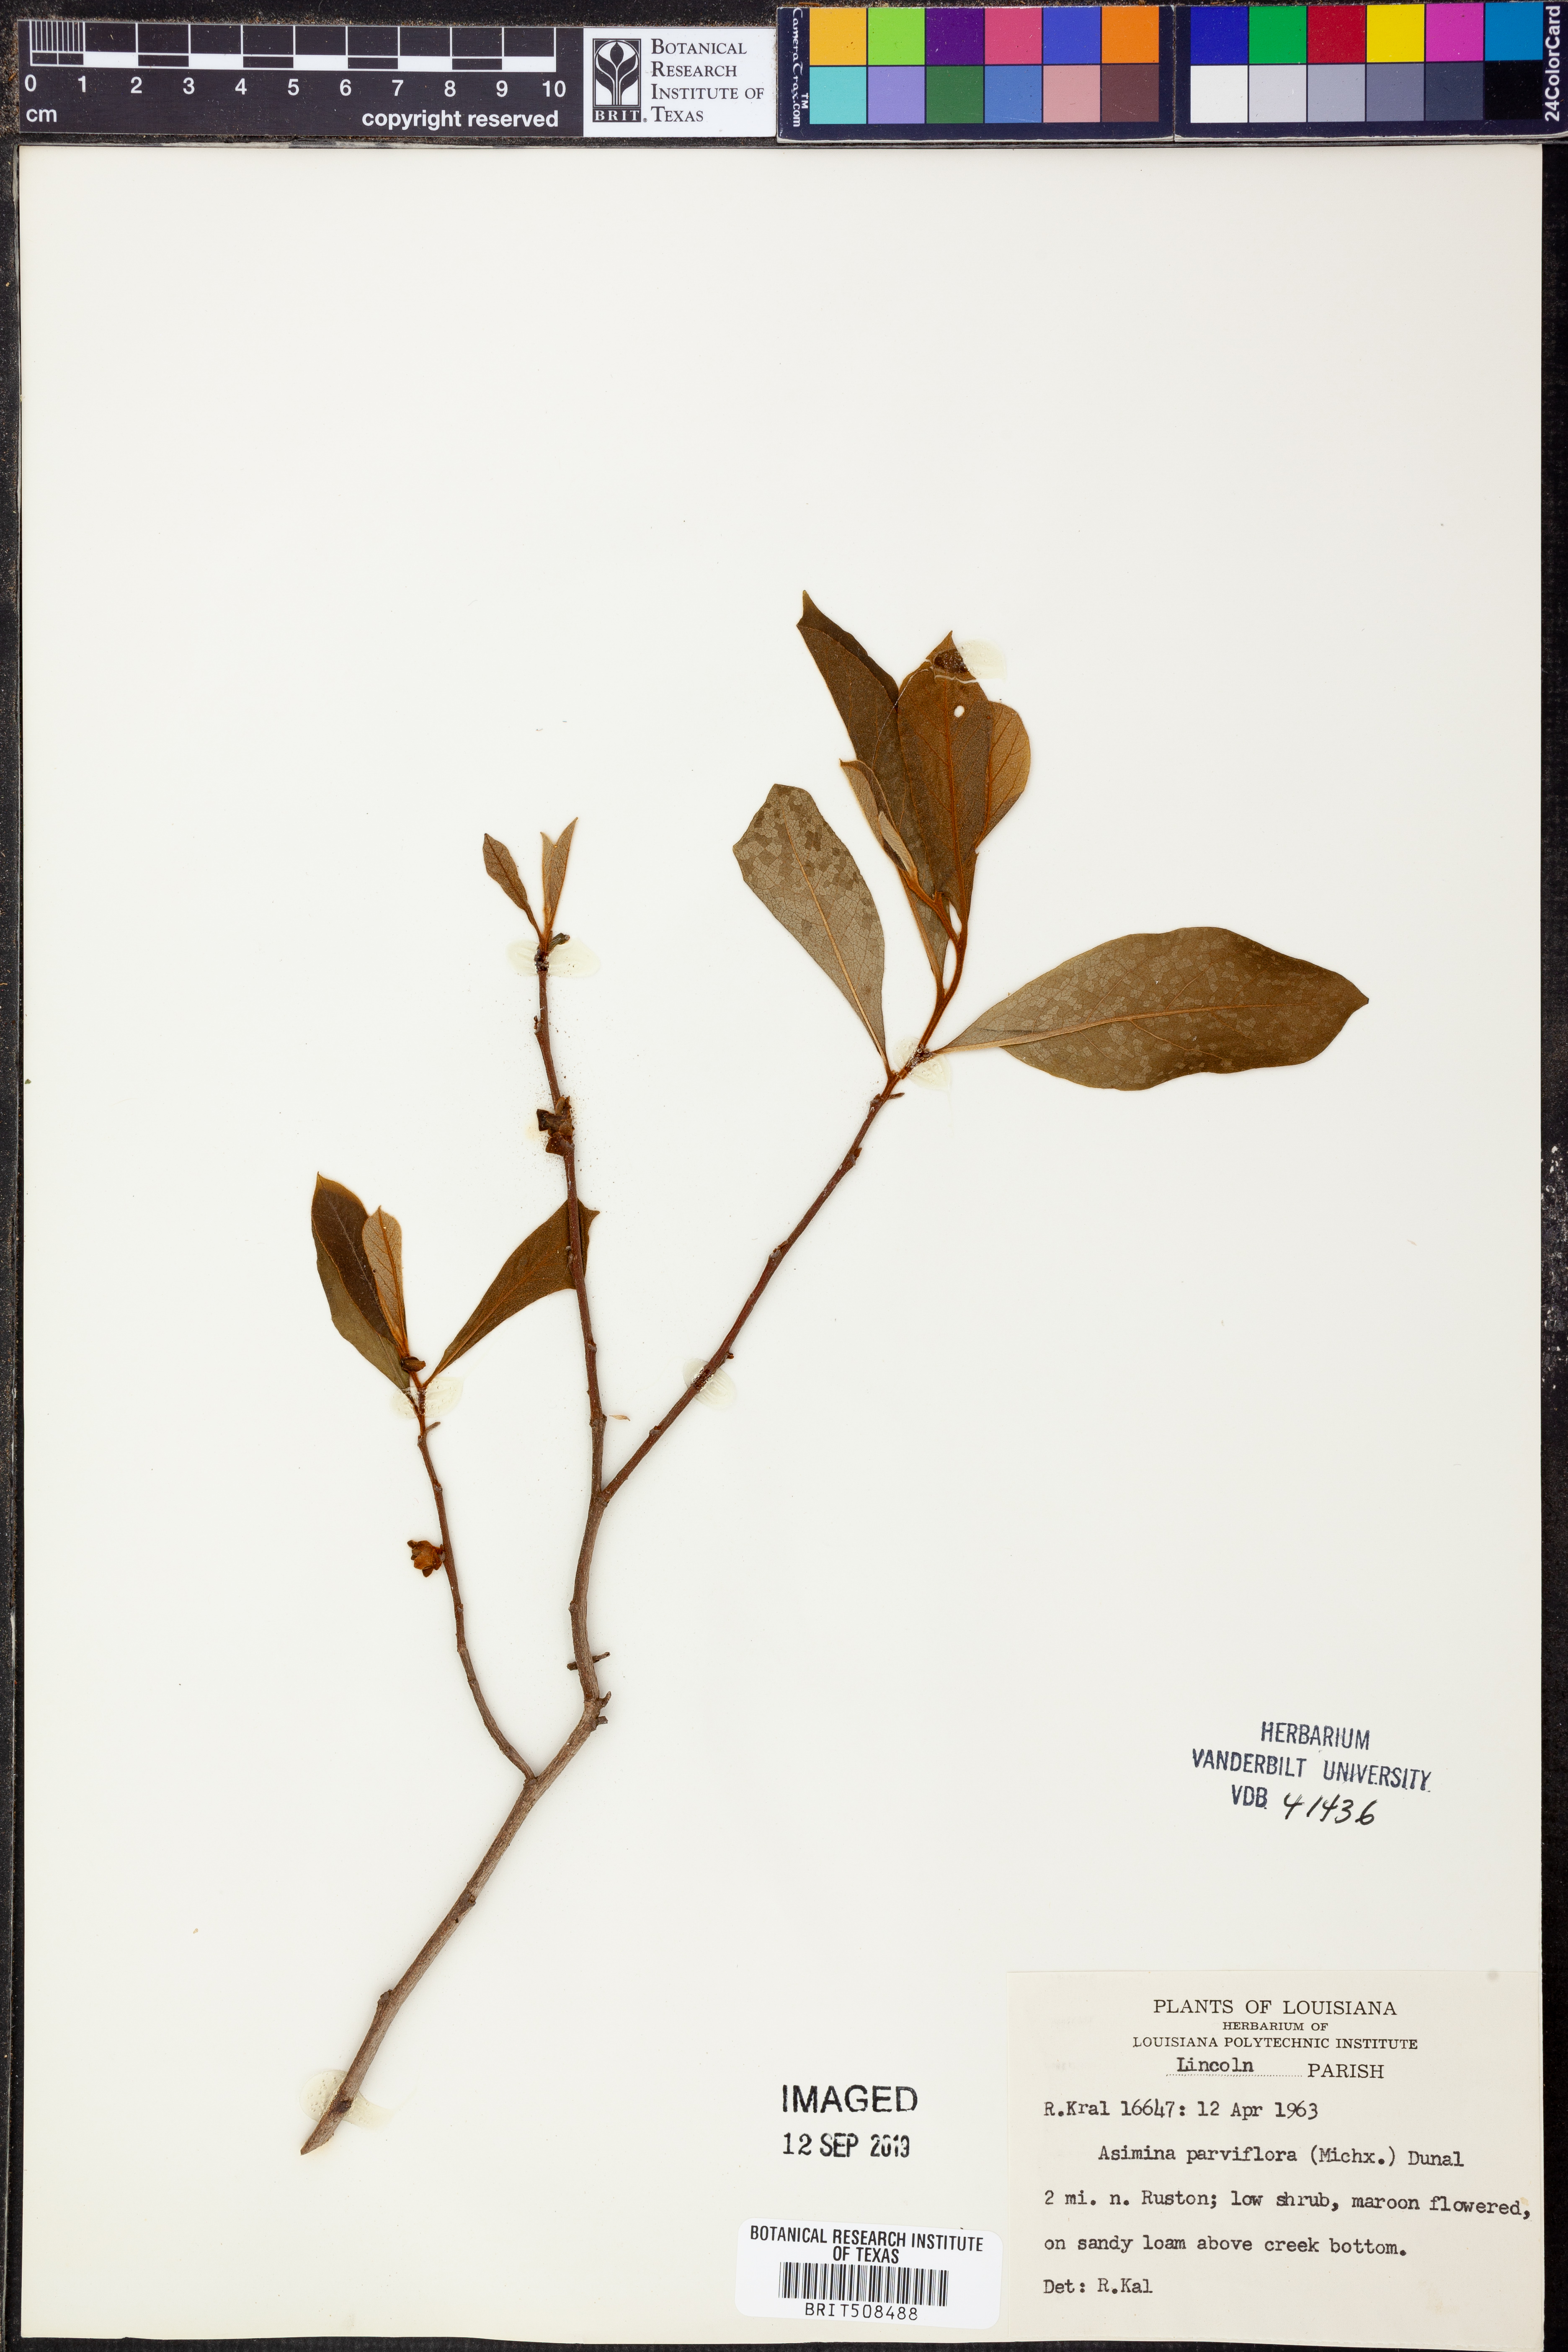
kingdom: Plantae
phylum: Tracheophyta
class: Magnoliopsida
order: Magnoliales
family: Annonaceae
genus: Asimina
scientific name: Asimina parviflora
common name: Dwarf pawpaw
